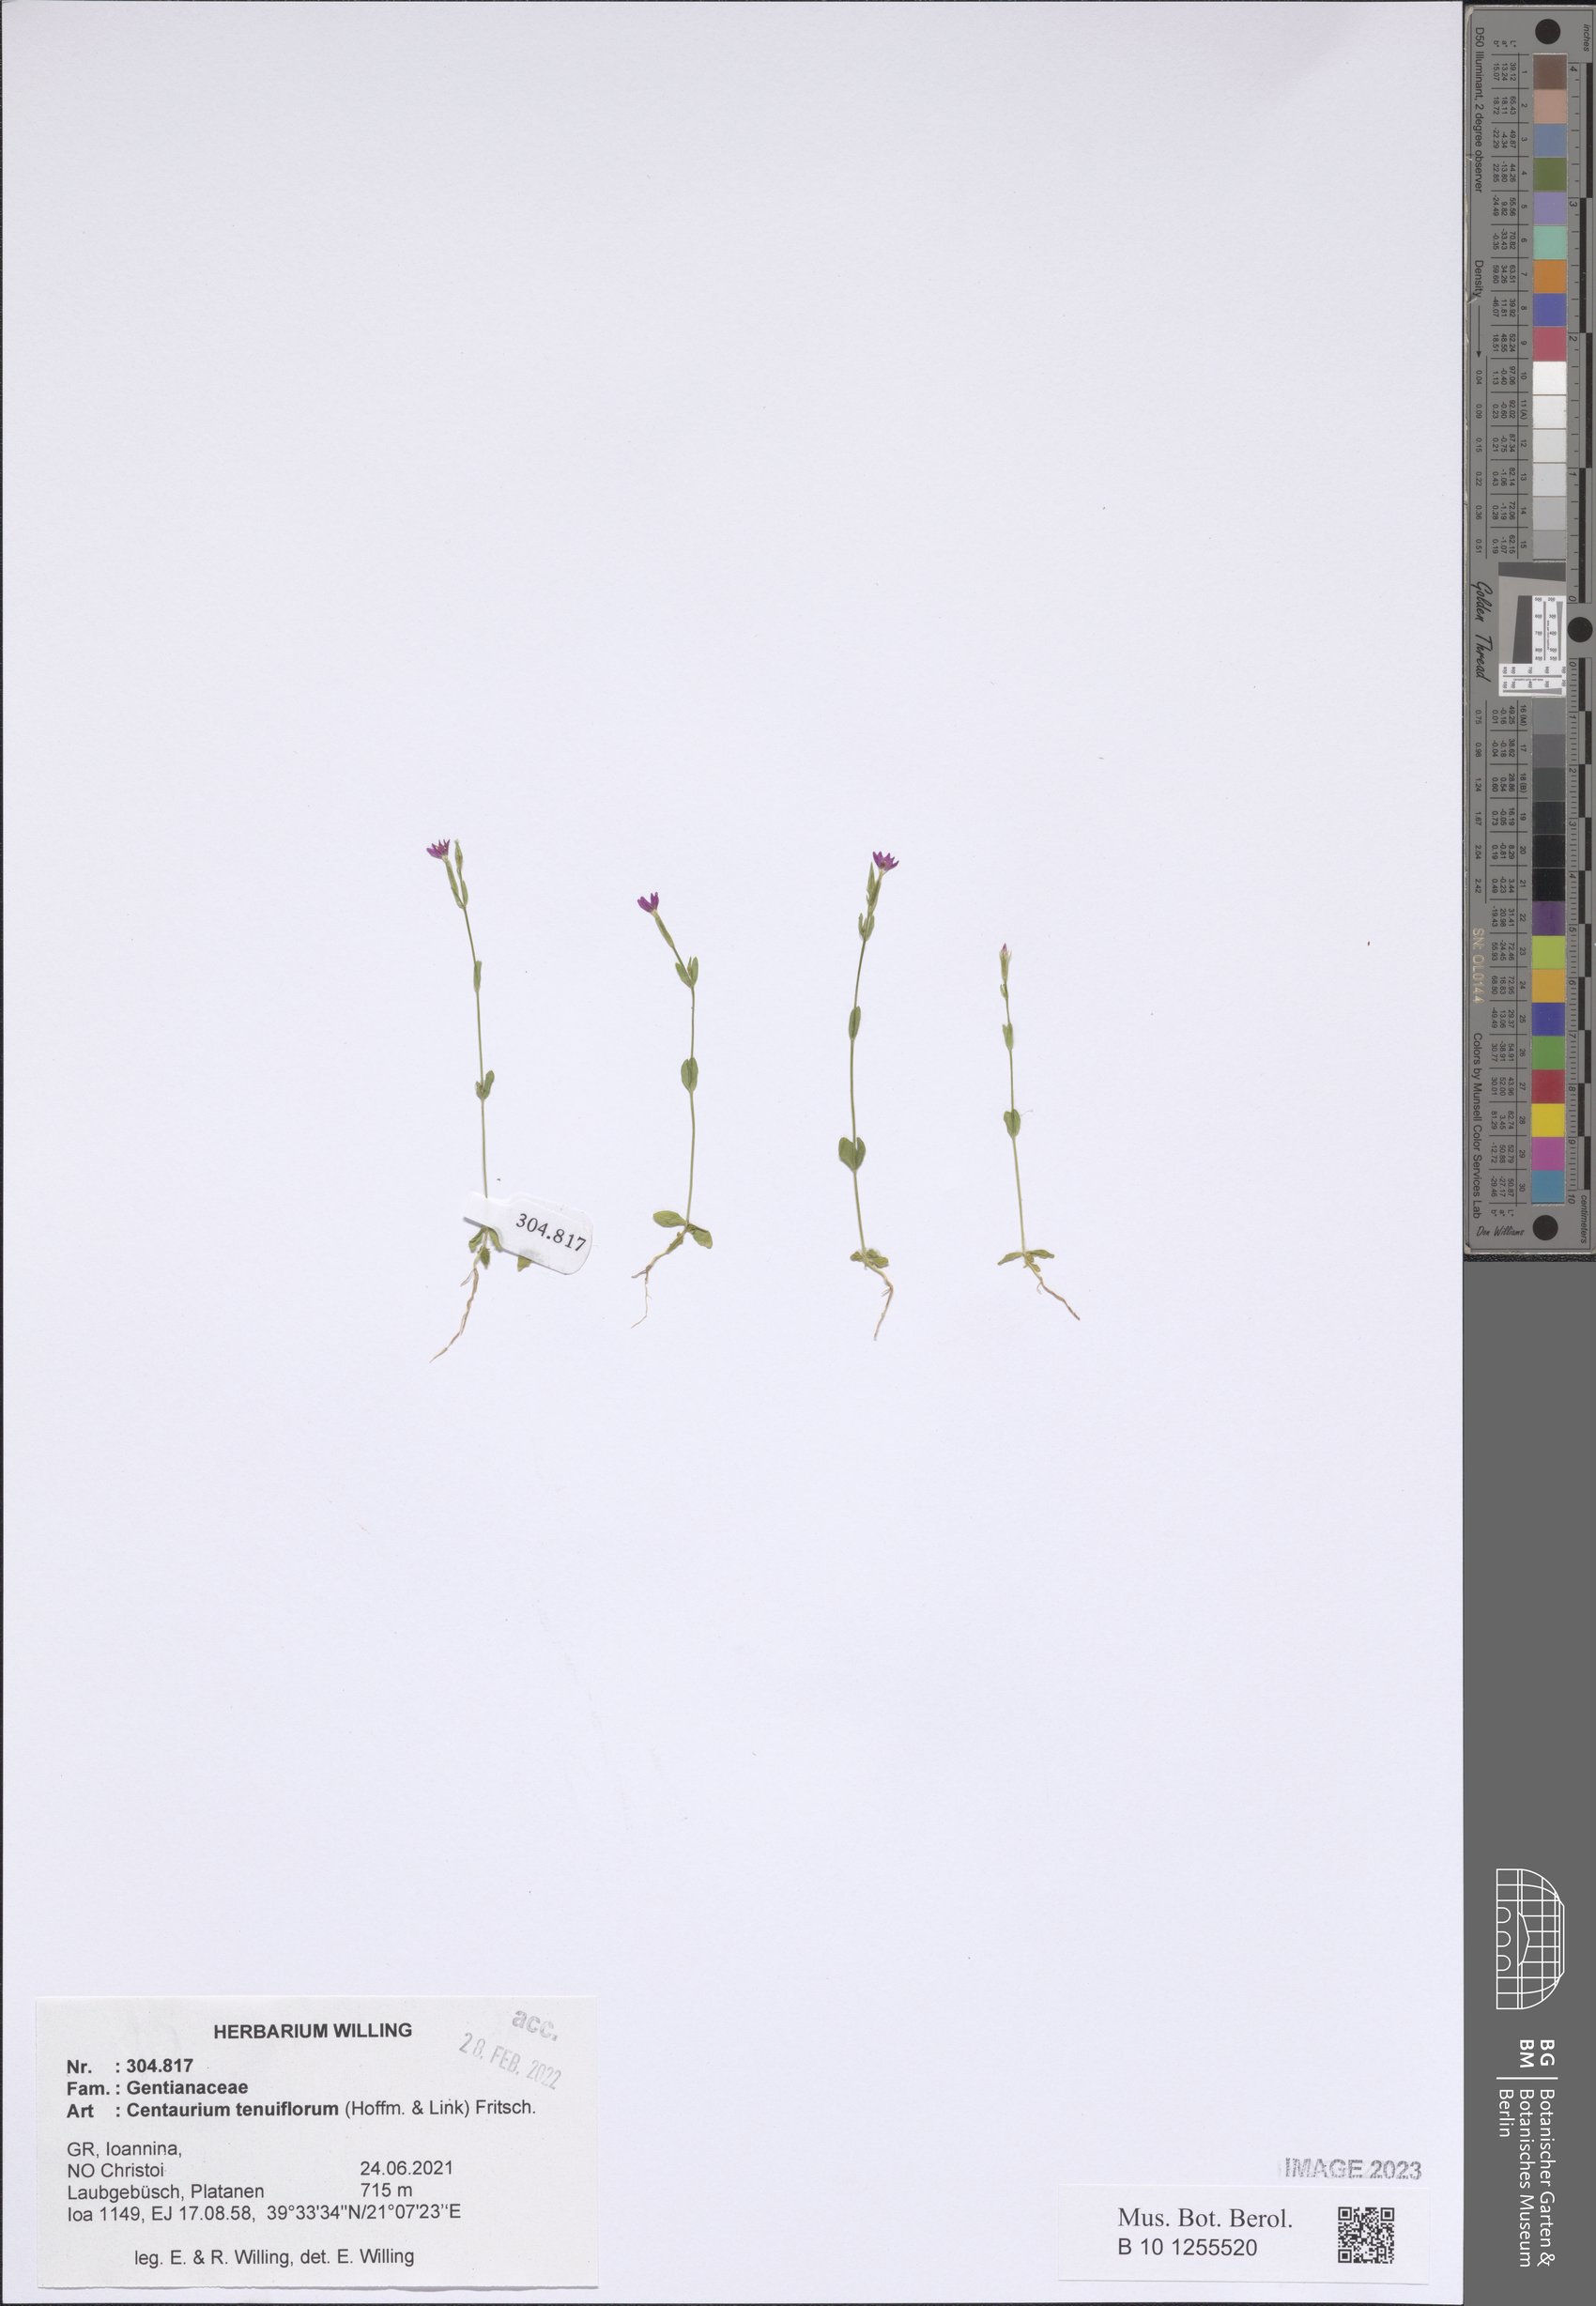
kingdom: Plantae
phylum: Tracheophyta
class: Magnoliopsida
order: Gentianales
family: Gentianaceae
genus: Centaurium
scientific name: Centaurium tenuiflorum
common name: Slender centaury
